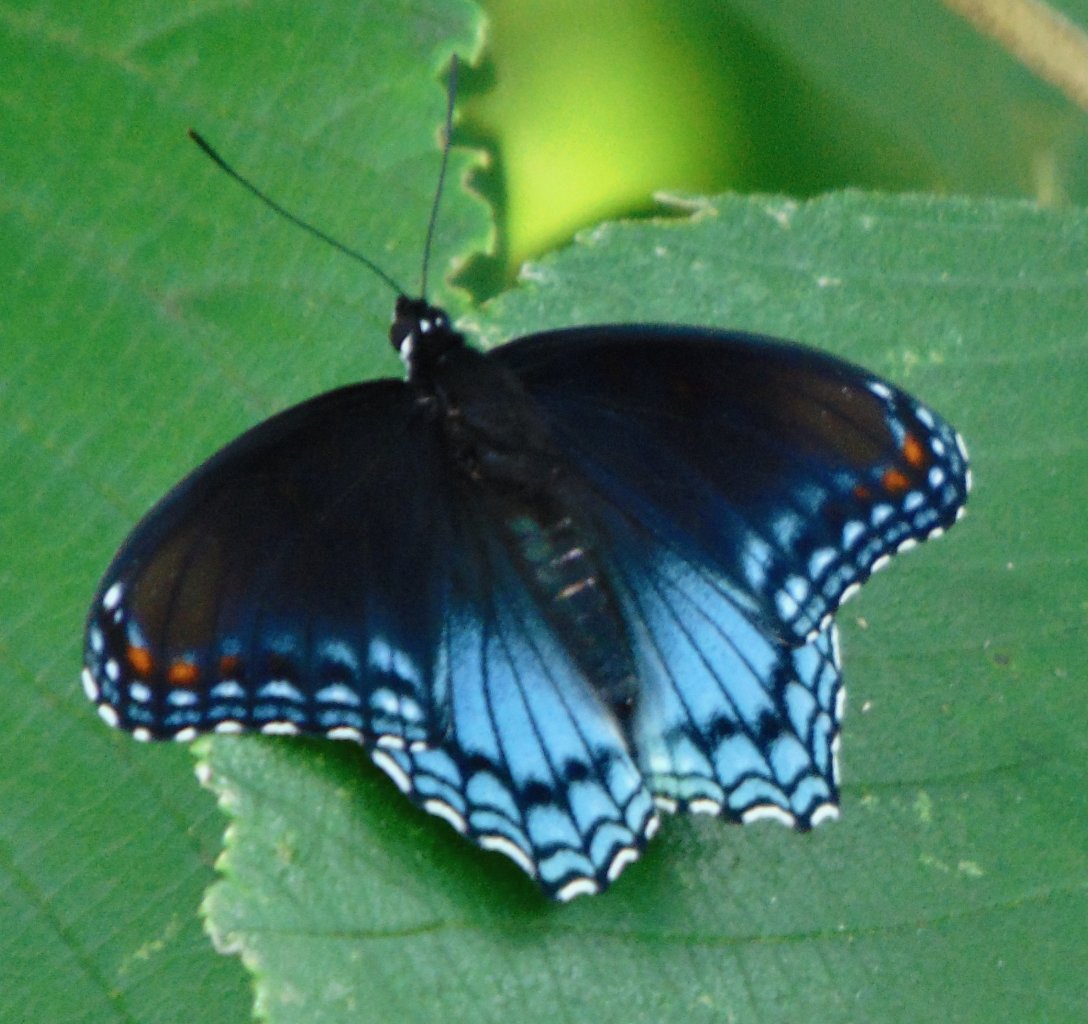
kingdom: Animalia
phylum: Arthropoda
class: Insecta
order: Lepidoptera
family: Nymphalidae
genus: Limenitis
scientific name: Limenitis astyanax
